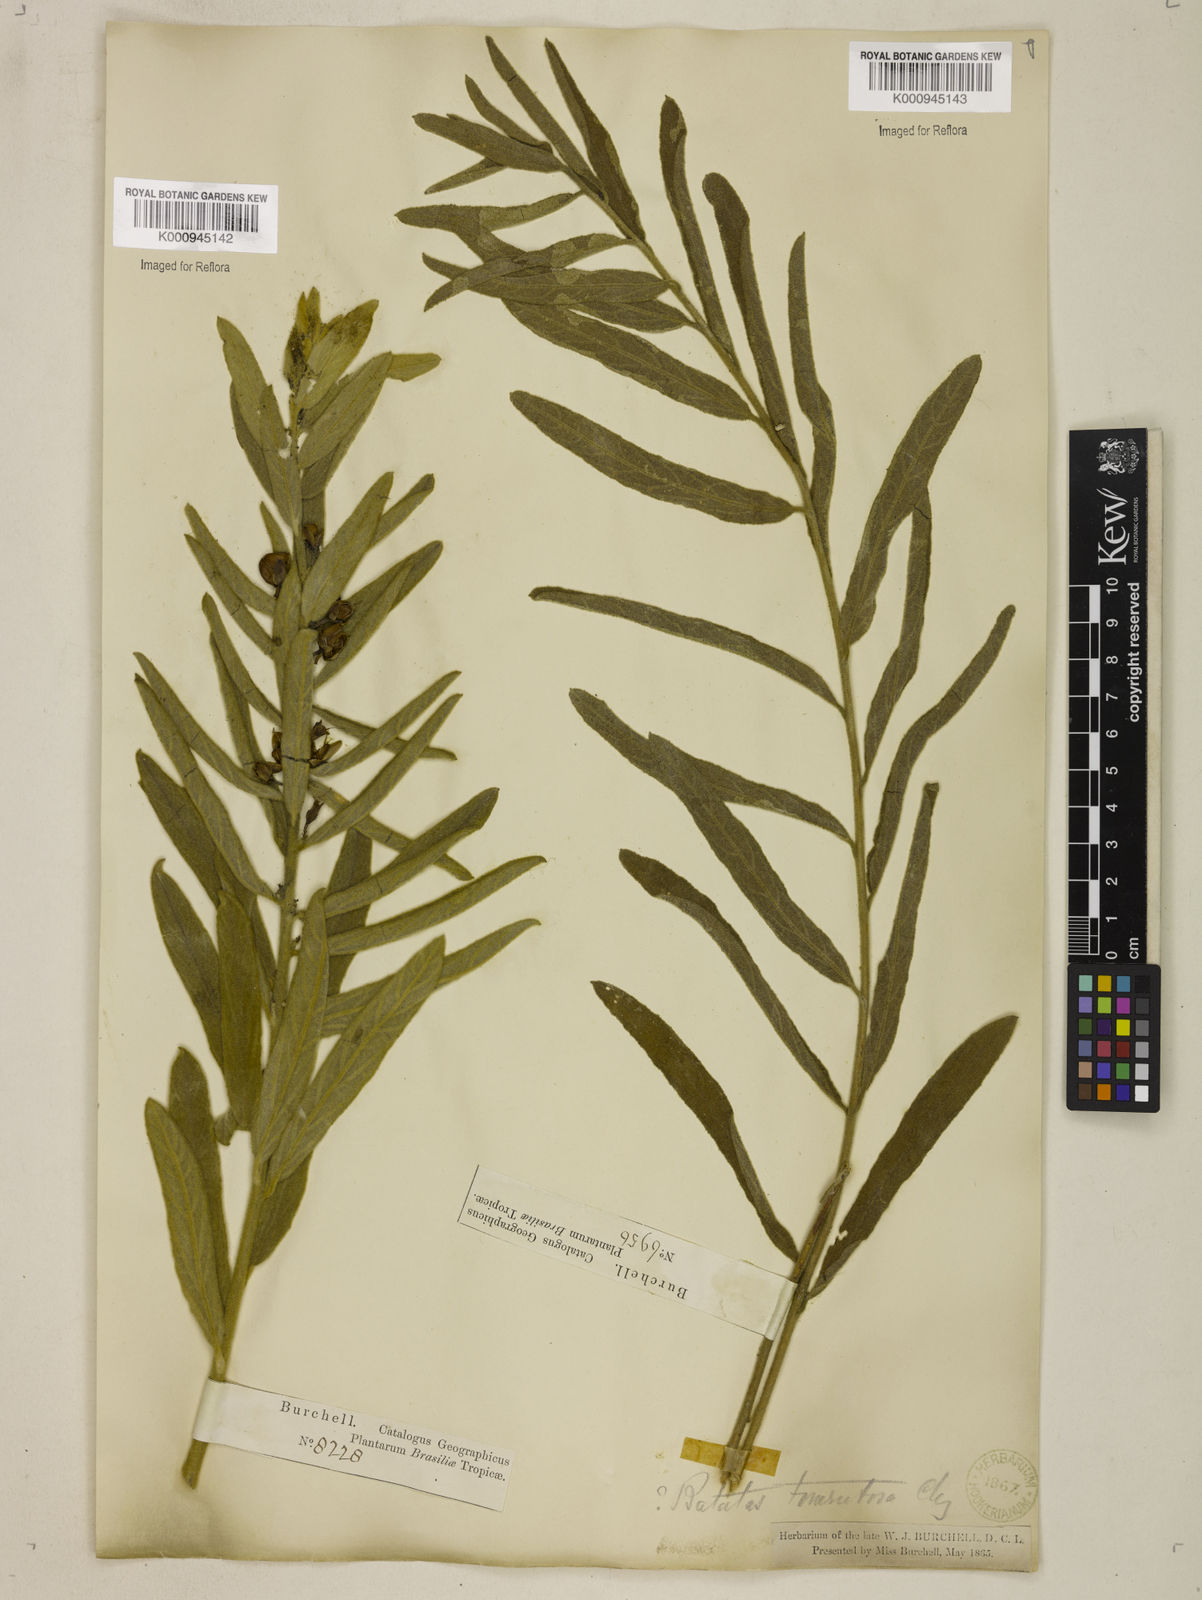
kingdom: Plantae
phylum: Tracheophyta
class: Magnoliopsida
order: Solanales
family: Convolvulaceae
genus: Distimake
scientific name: Distimake tomentosus
